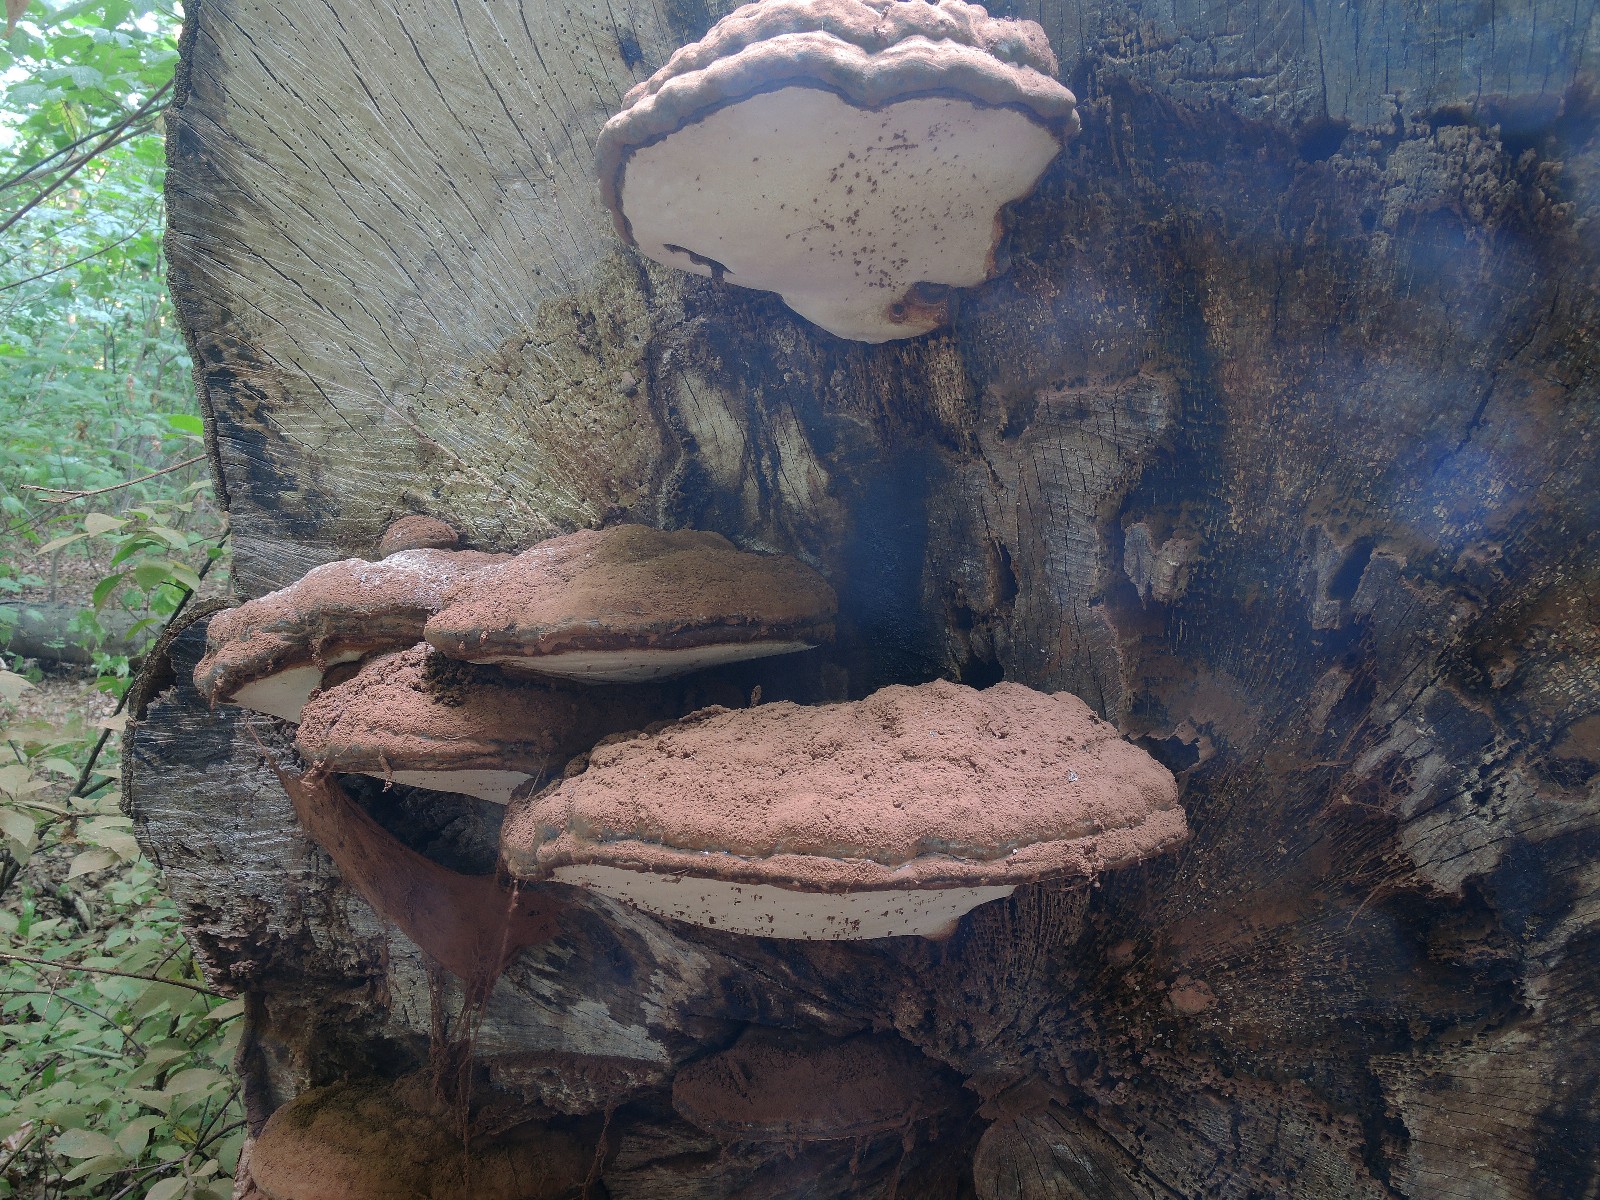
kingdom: Fungi
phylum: Basidiomycota
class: Agaricomycetes
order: Polyporales
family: Polyporaceae
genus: Ganoderma
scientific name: Ganoderma pfeifferi
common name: kobberrød lakporesvamp
